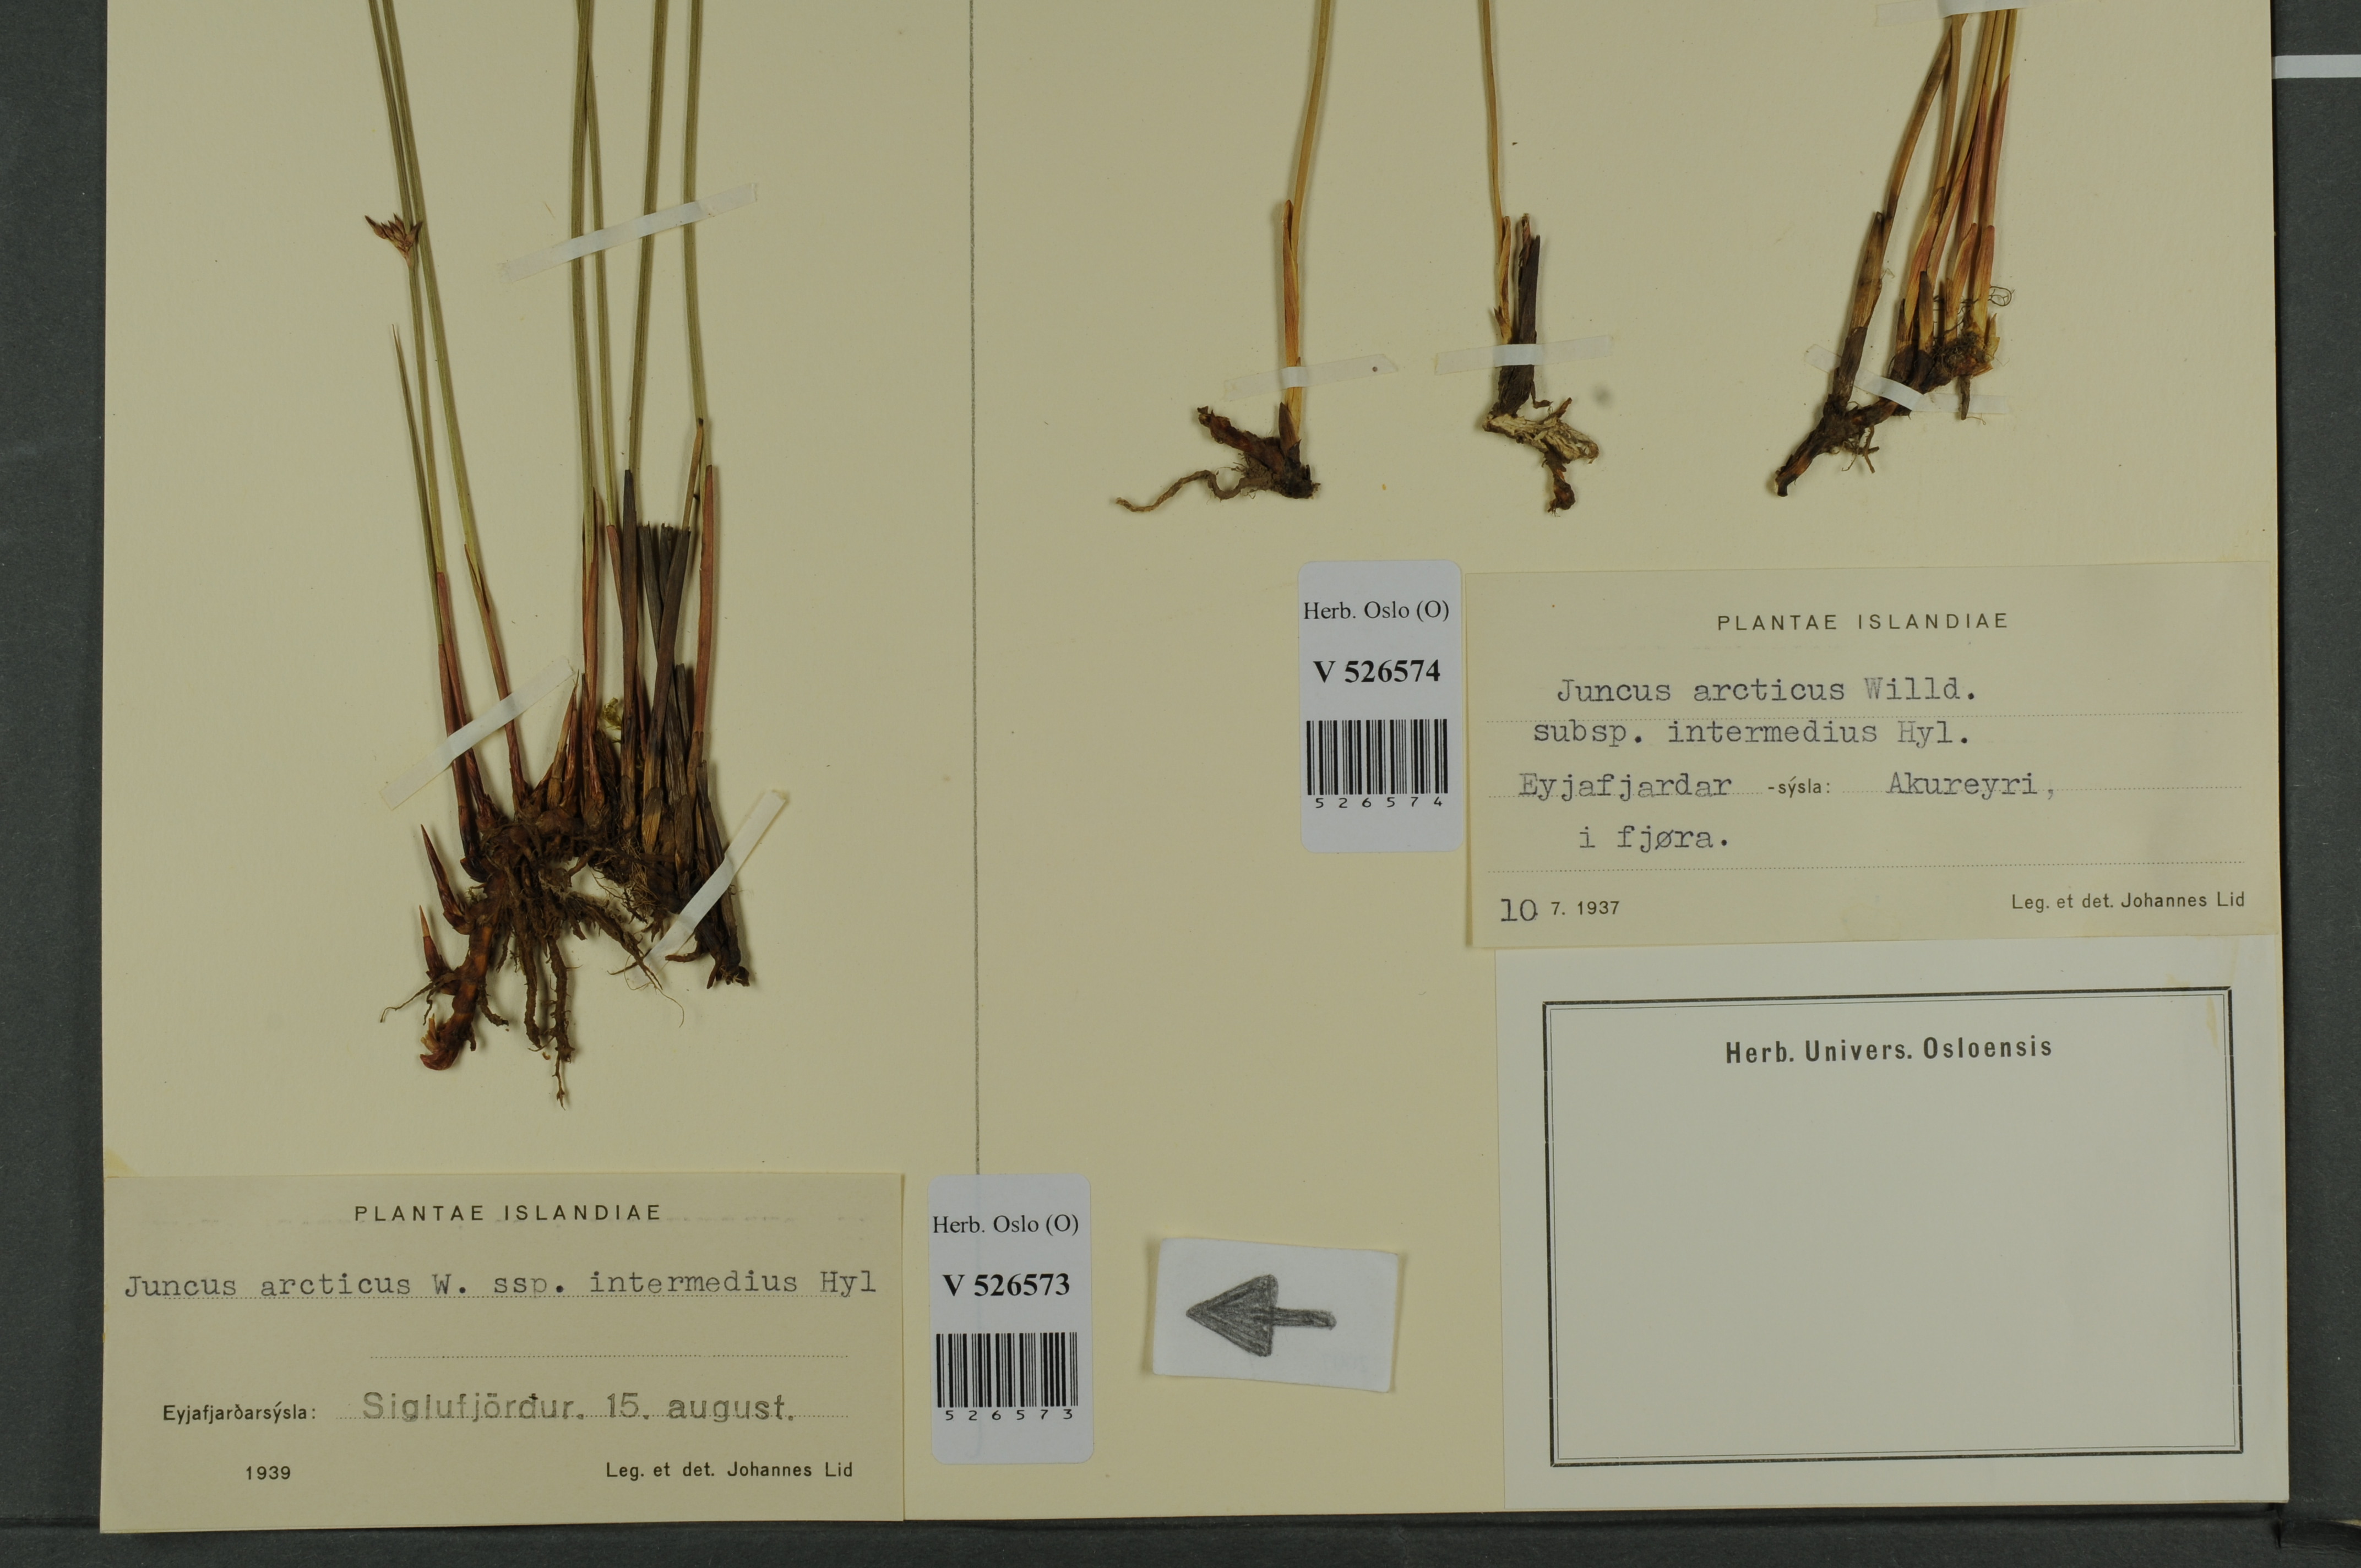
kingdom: Plantae
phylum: Tracheophyta
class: Liliopsida
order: Poales
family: Juncaceae
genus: Juncus
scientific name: Juncus arcticus
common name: Arctic rush
